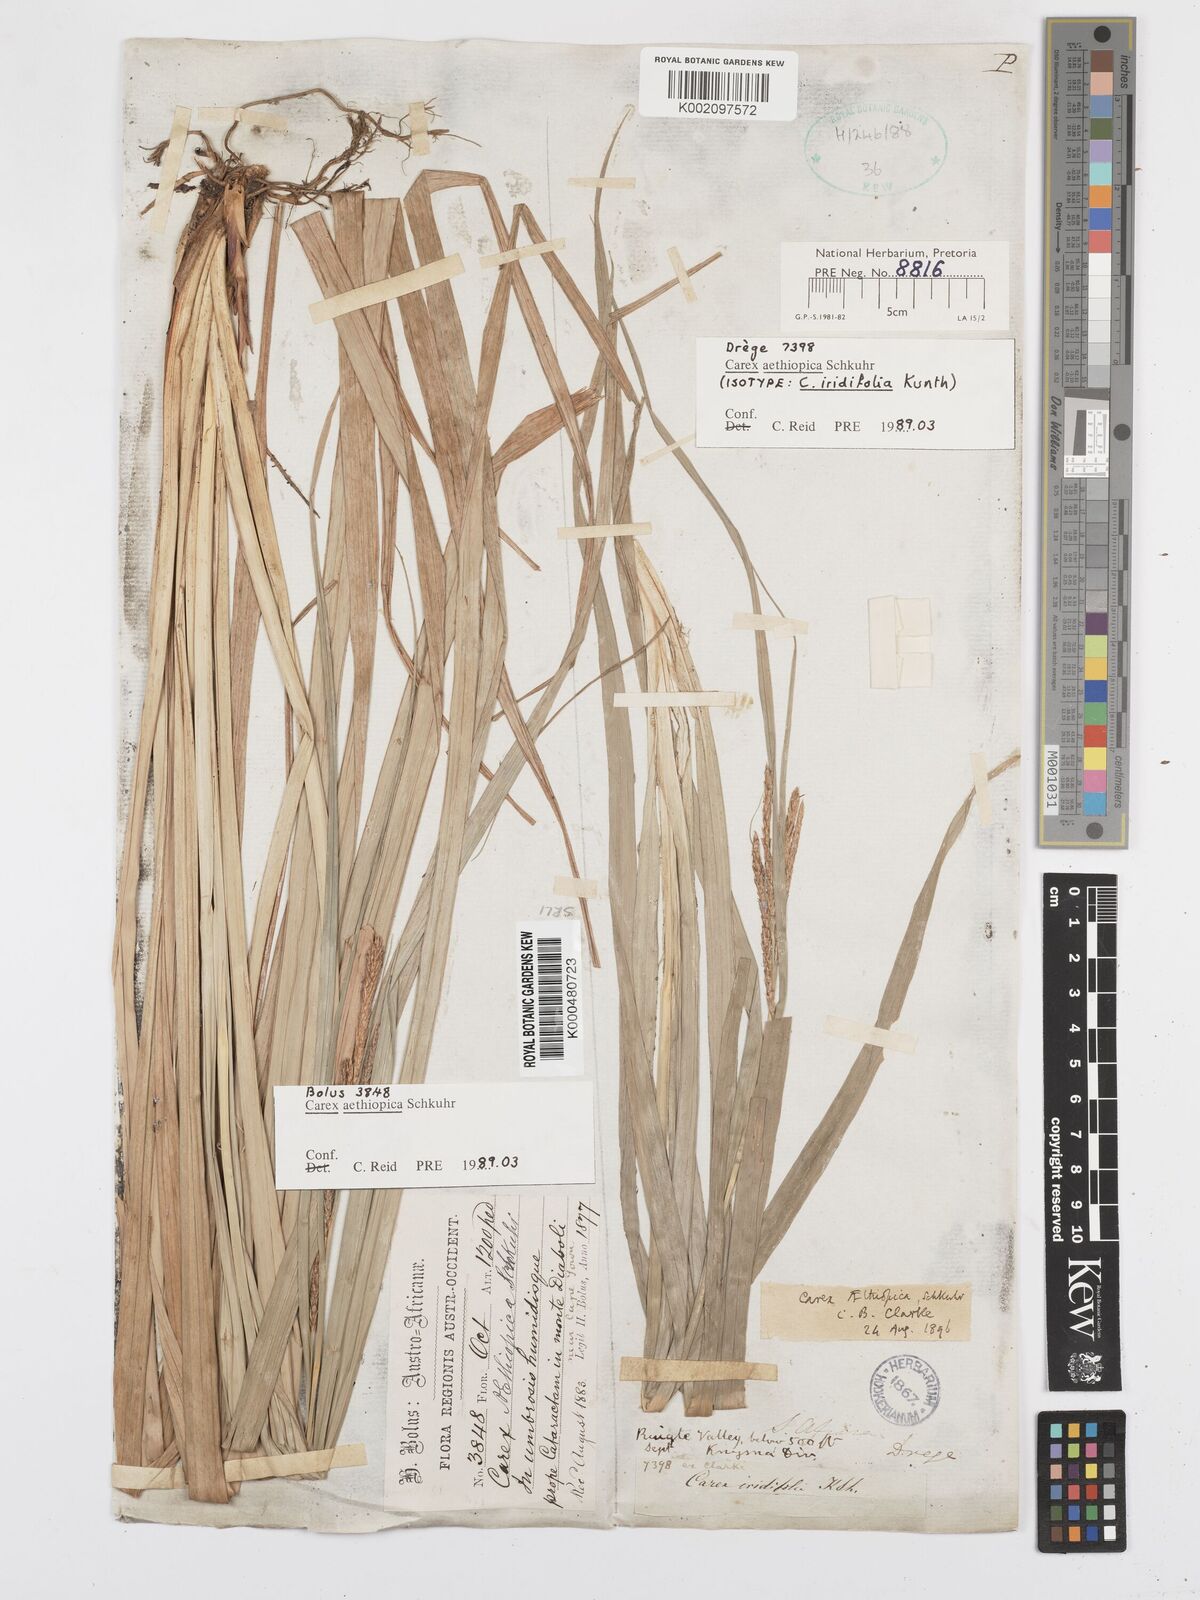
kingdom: Plantae
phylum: Tracheophyta
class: Liliopsida
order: Poales
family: Cyperaceae
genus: Carex
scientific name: Carex aethiopica
